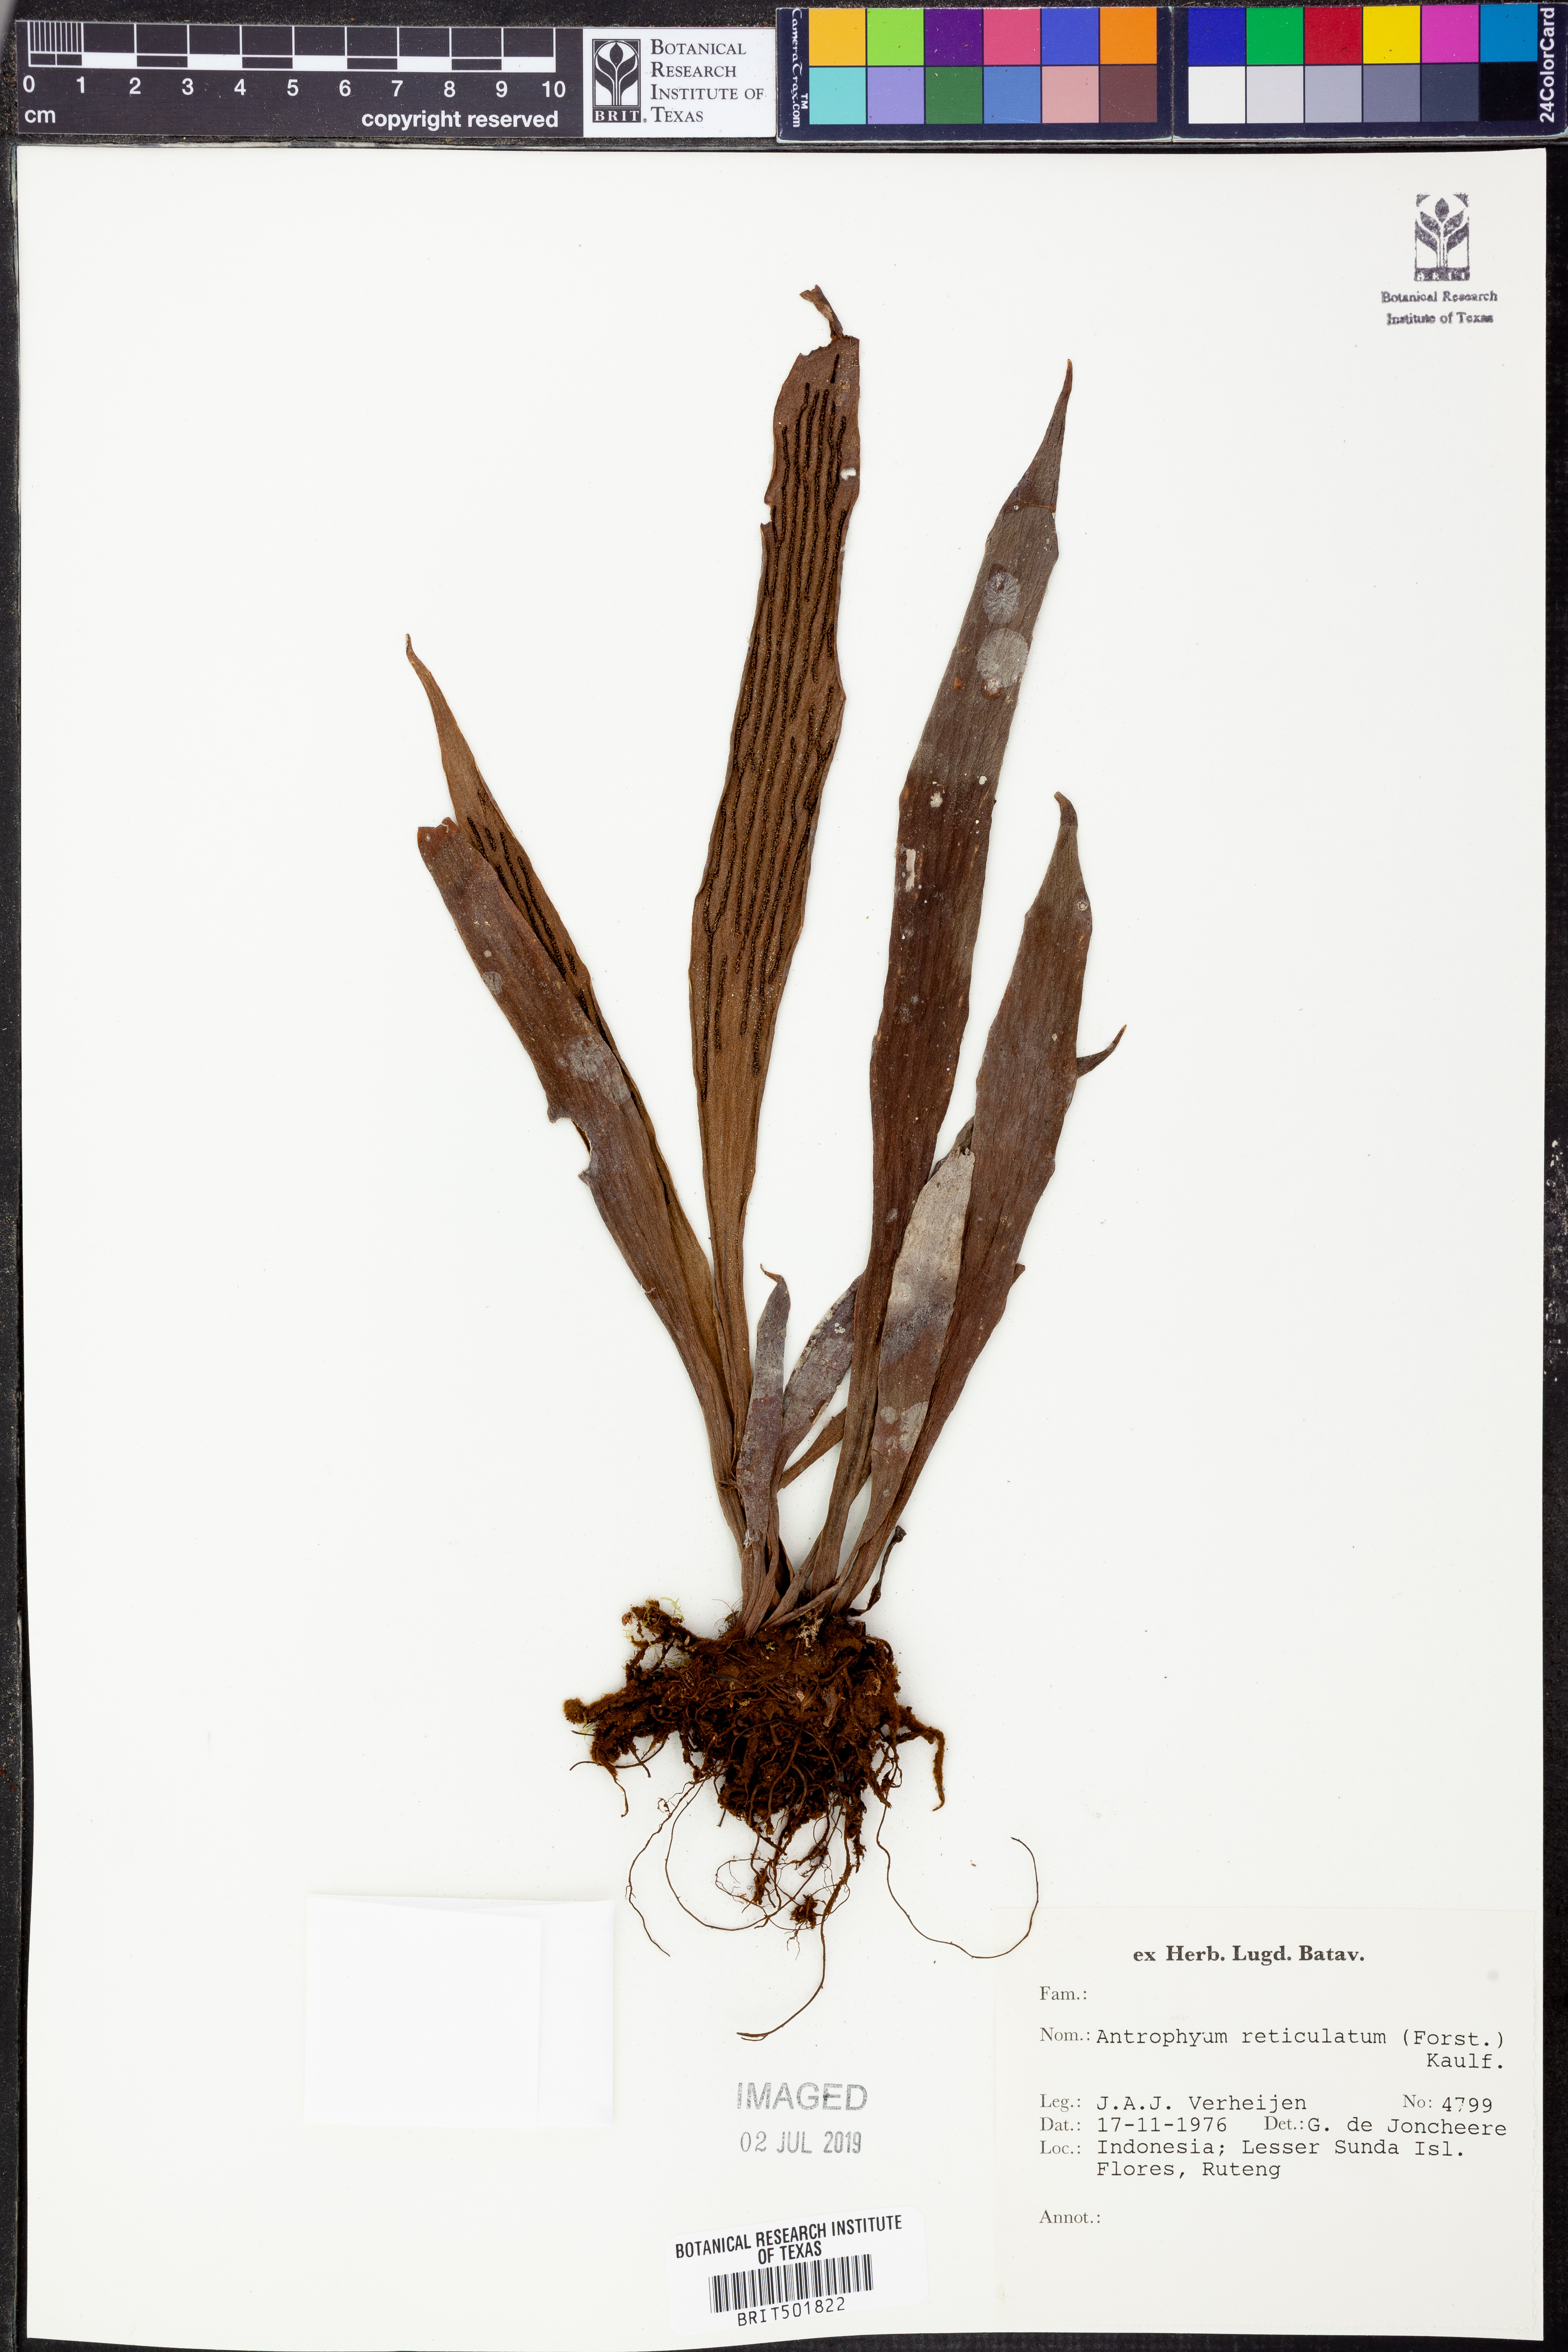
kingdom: Plantae
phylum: Tracheophyta
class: Polypodiopsida
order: Polypodiales
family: Pteridaceae
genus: Antrophyum
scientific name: Antrophyum reticulatum
